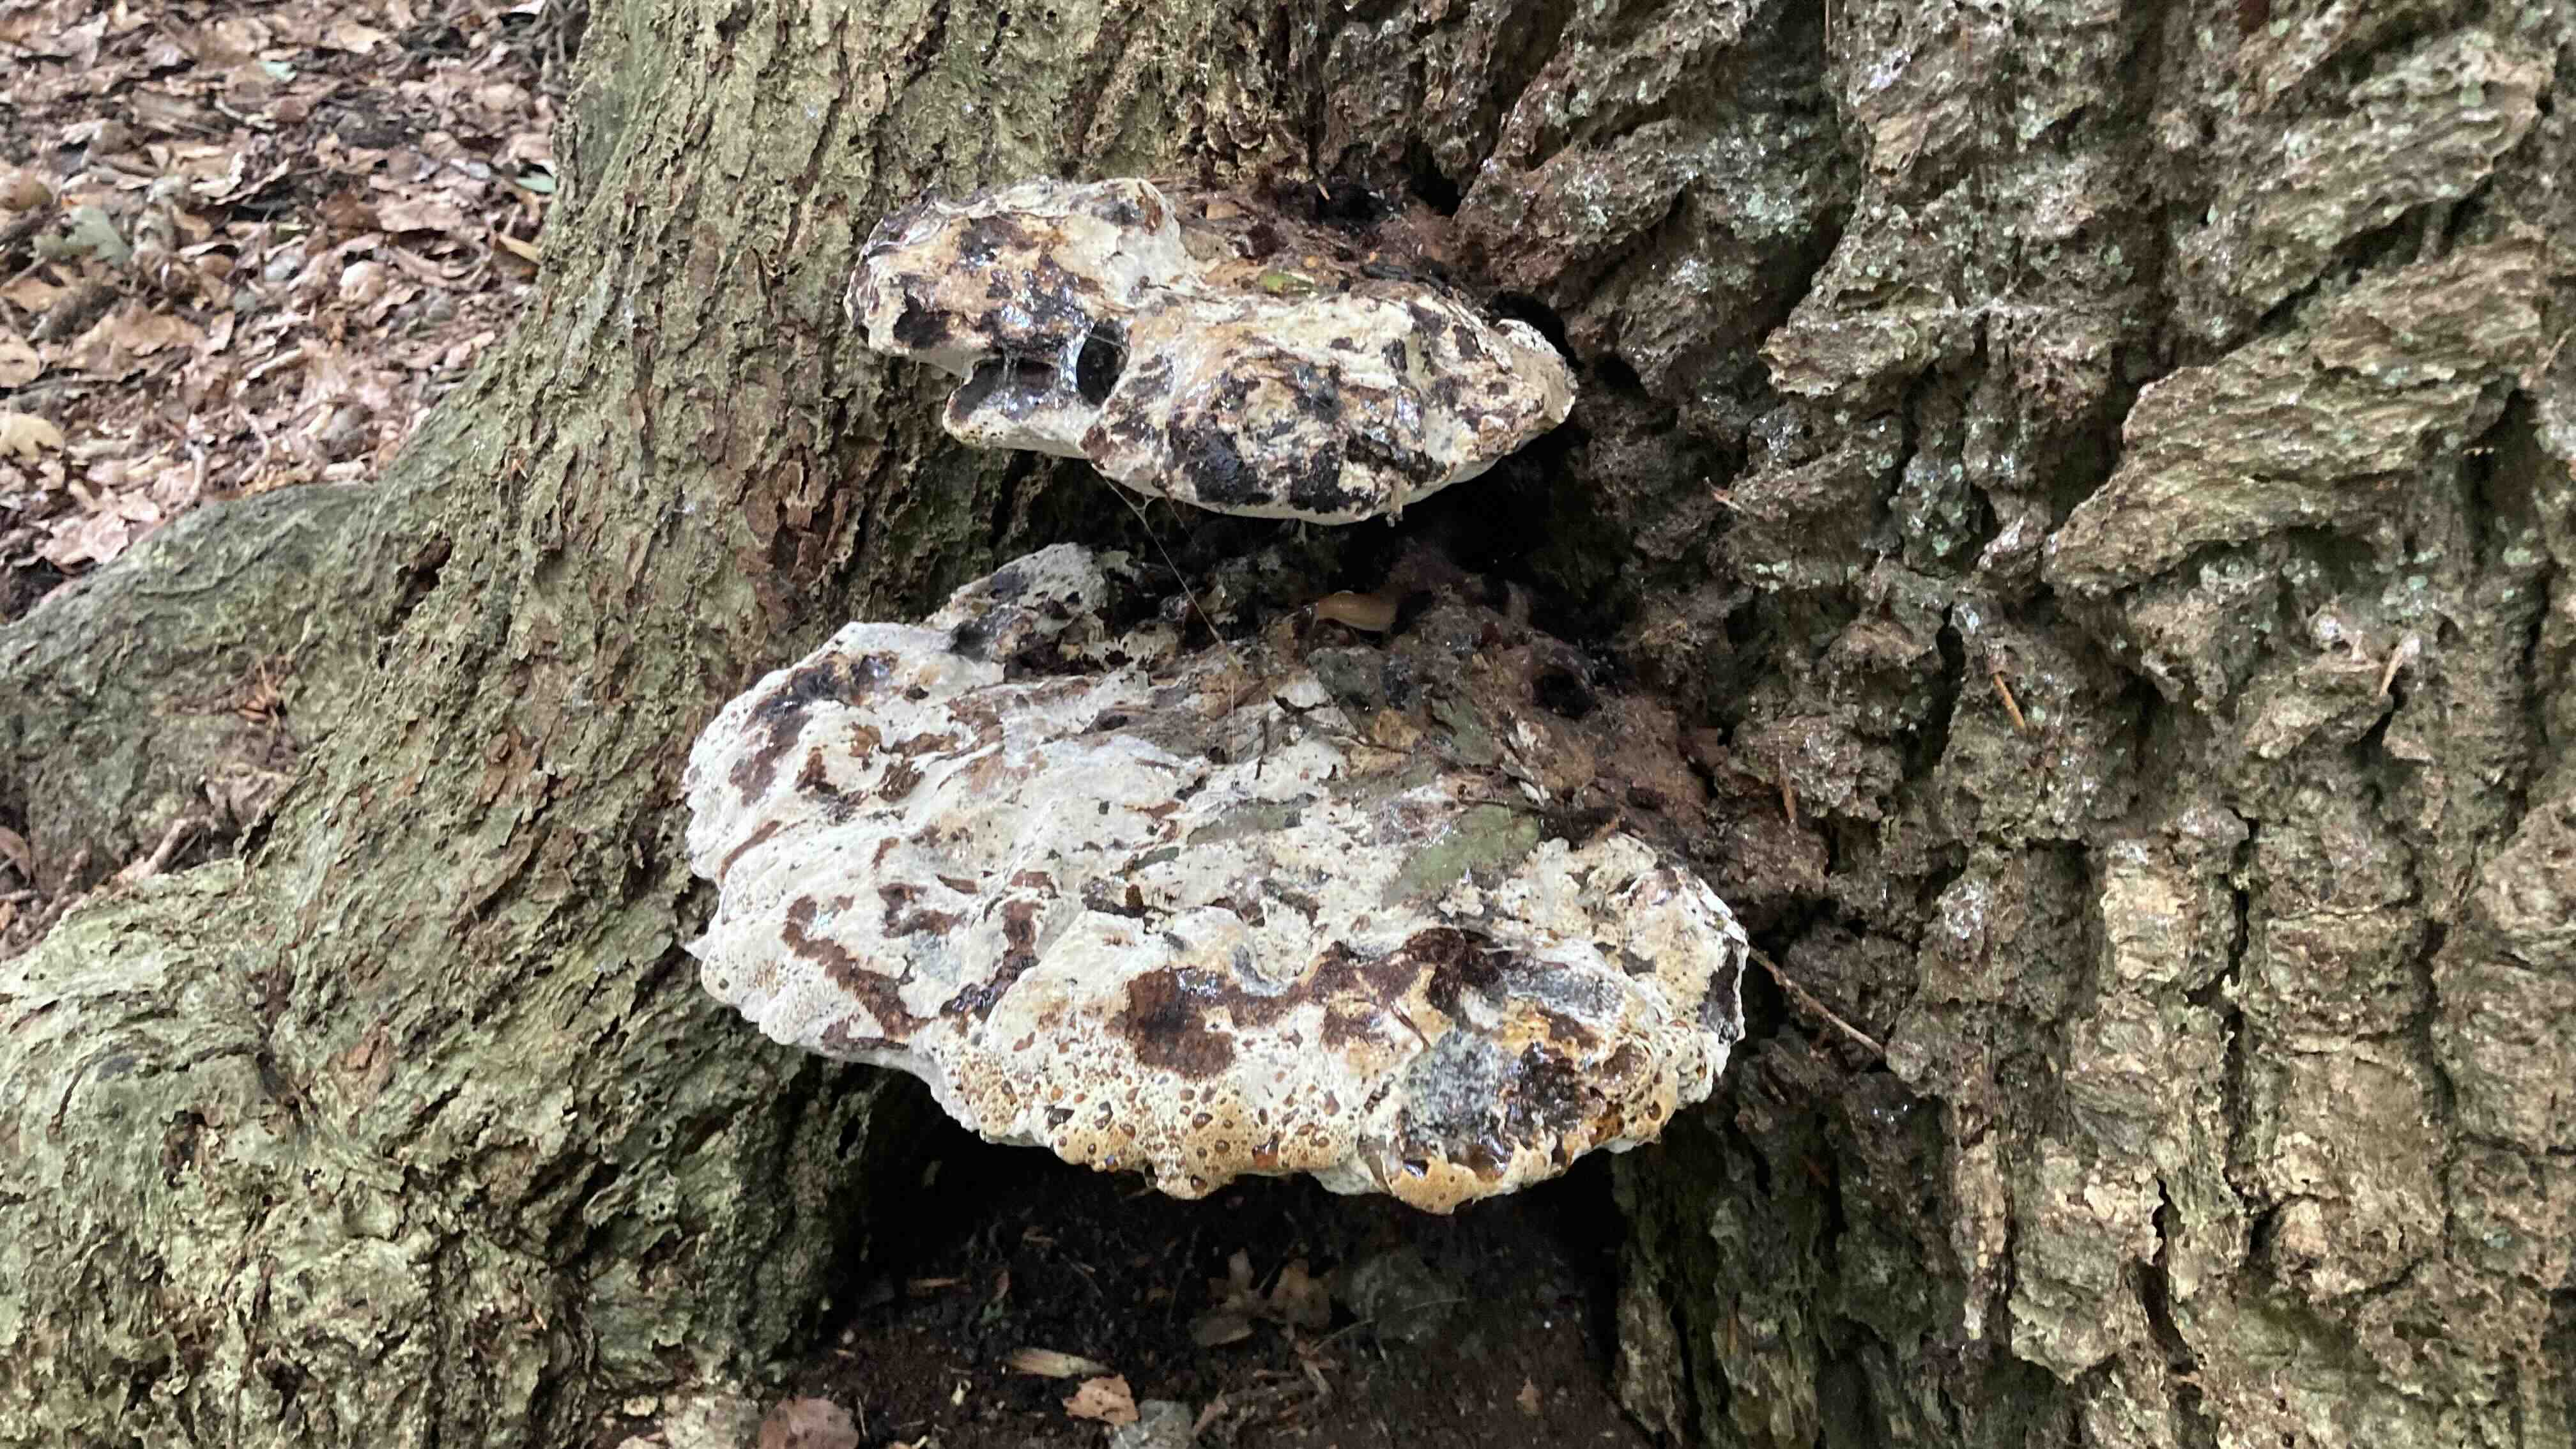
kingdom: Fungi
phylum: Basidiomycota
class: Agaricomycetes
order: Hymenochaetales
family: Hymenochaetaceae
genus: Pseudoinonotus
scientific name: Pseudoinonotus dryadeus
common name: ege-spejlporesvamp
